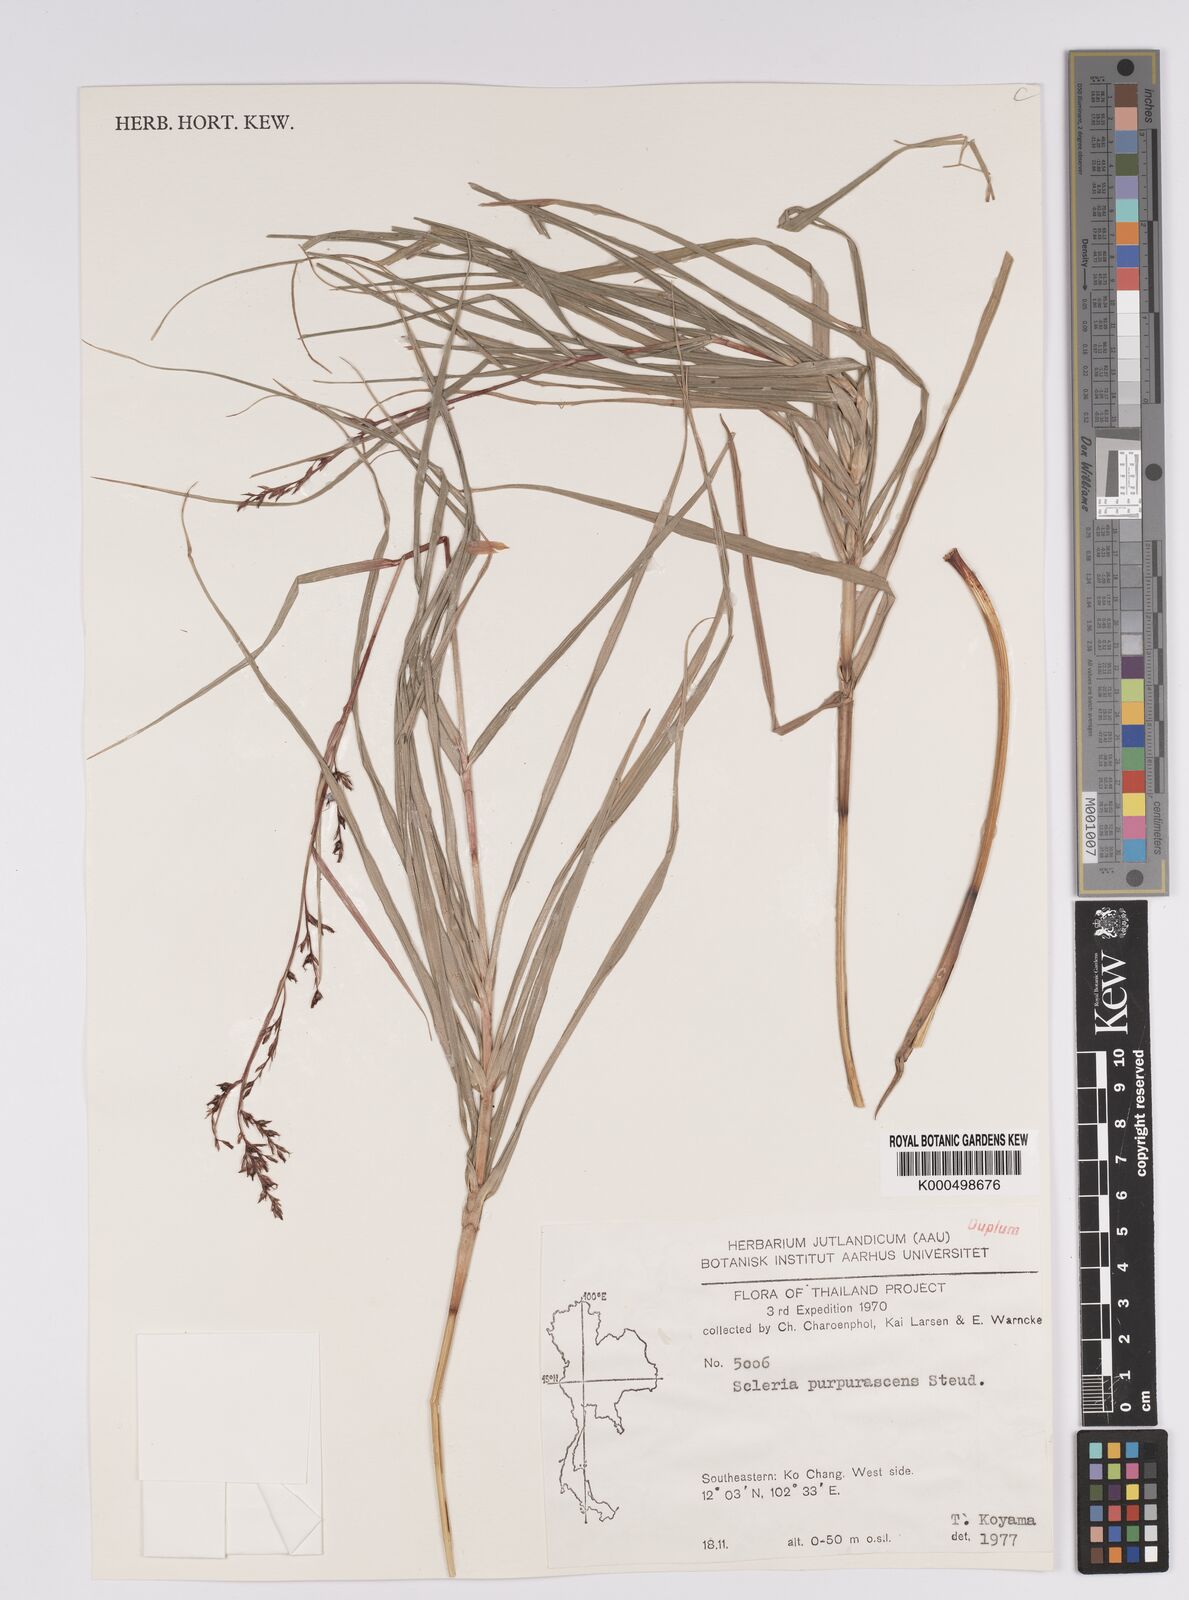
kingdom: Plantae
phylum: Tracheophyta
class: Liliopsida
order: Poales
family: Cyperaceae
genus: Scleria
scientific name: Scleria purpurascens
